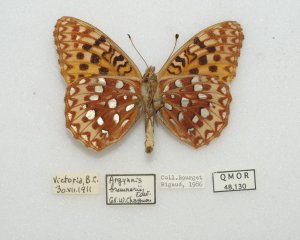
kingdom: Animalia
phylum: Arthropoda
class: Insecta
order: Lepidoptera
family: Nymphalidae
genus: Speyeria
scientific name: Speyeria zerene
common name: Zerene Fritillary
